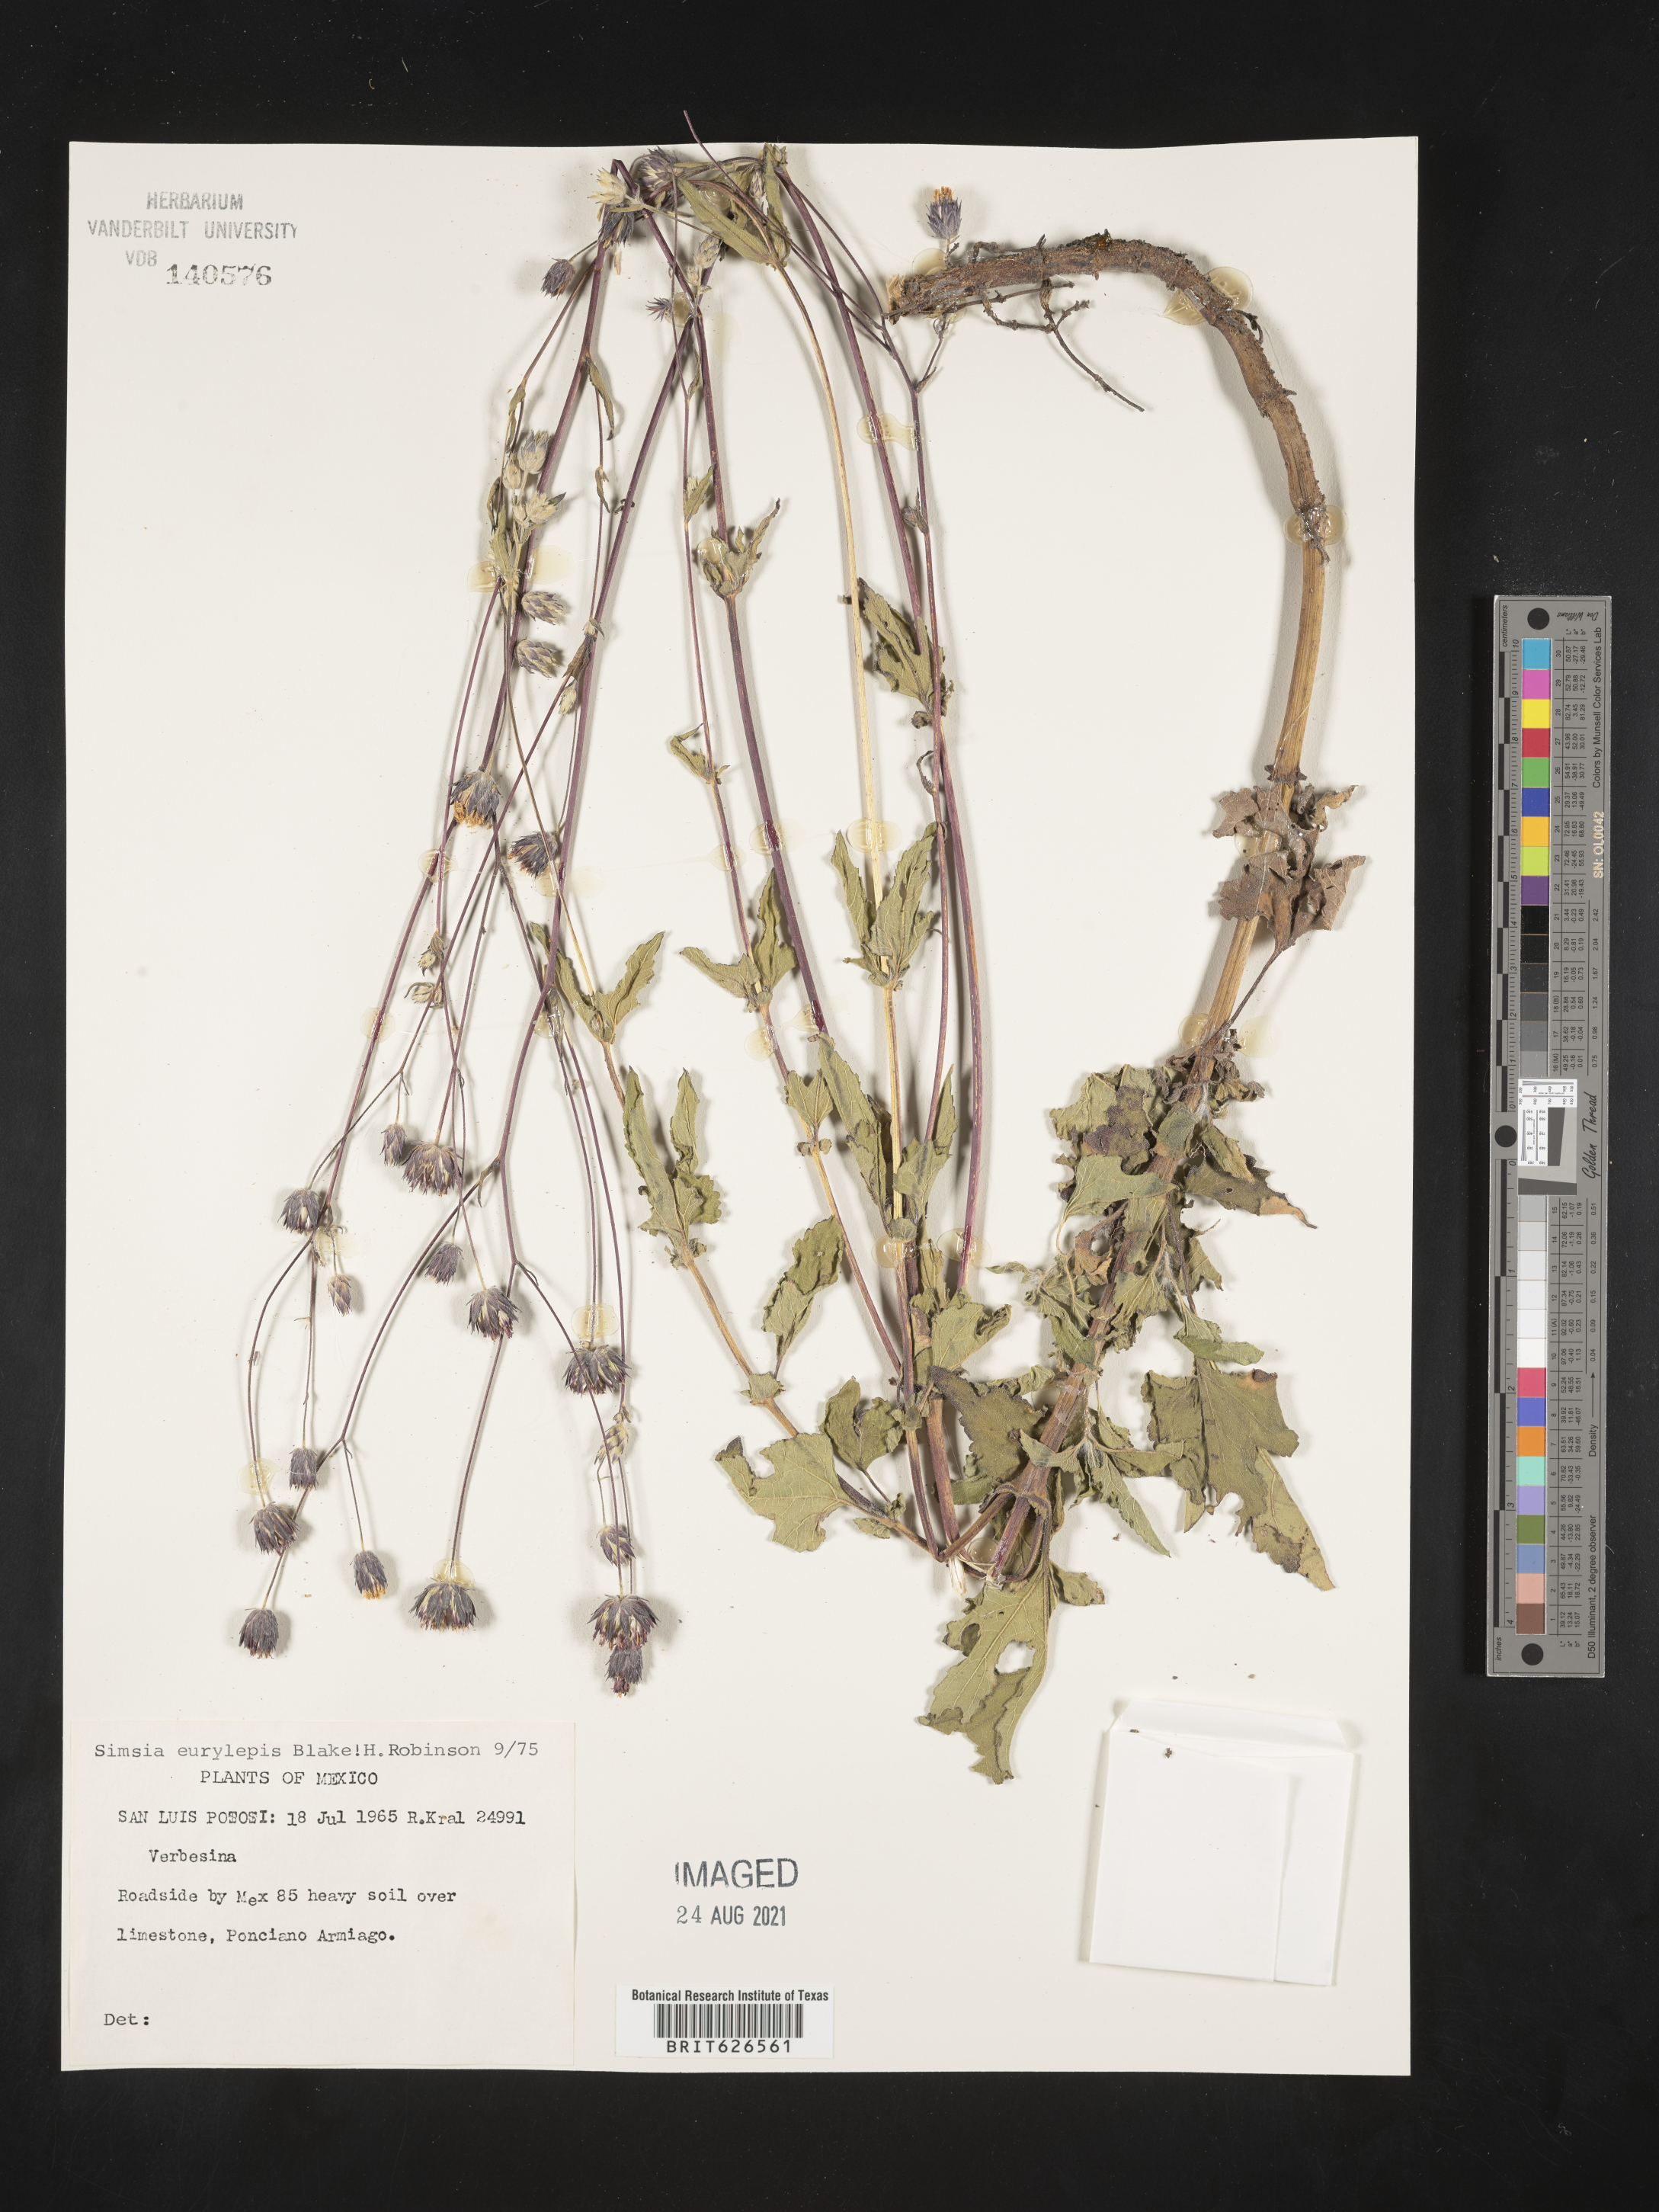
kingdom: Plantae
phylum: Tracheophyta
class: Magnoliopsida
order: Asterales
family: Asteraceae
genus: Simsia
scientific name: Simsia
